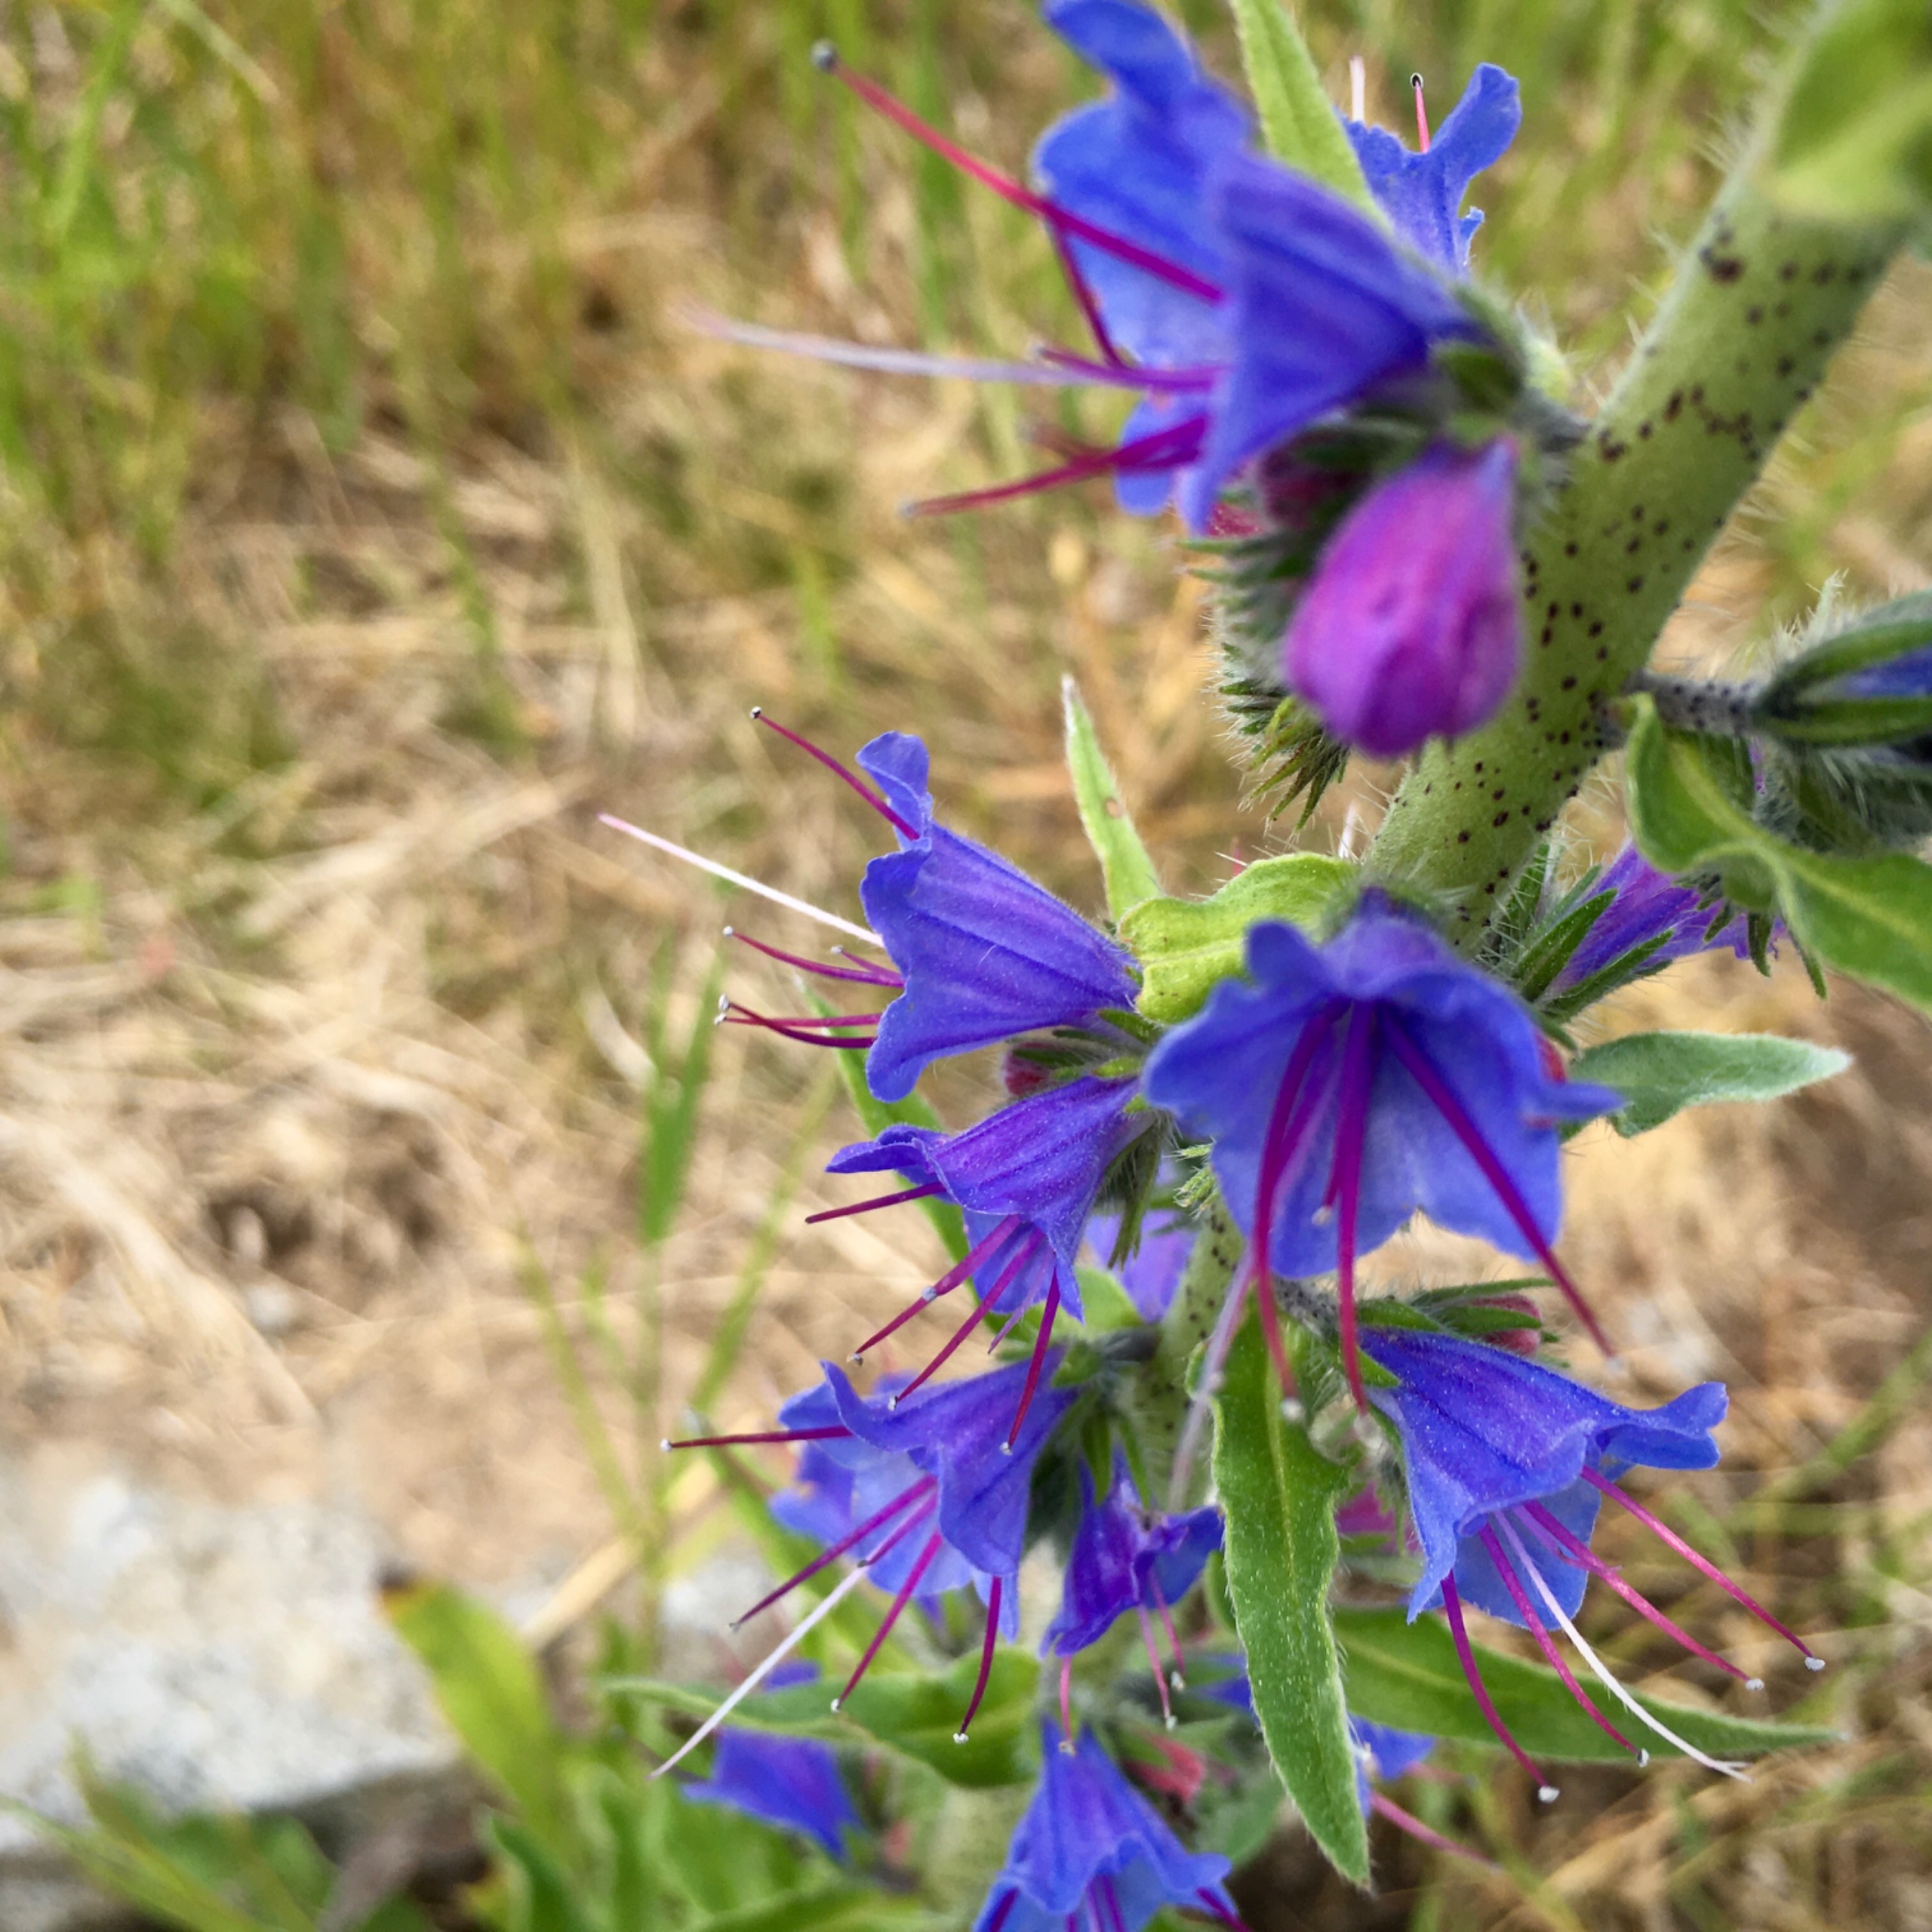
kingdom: Plantae
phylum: Tracheophyta
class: Magnoliopsida
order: Boraginales
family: Boraginaceae
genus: Echium
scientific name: Echium vulgare
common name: Slangehoved
